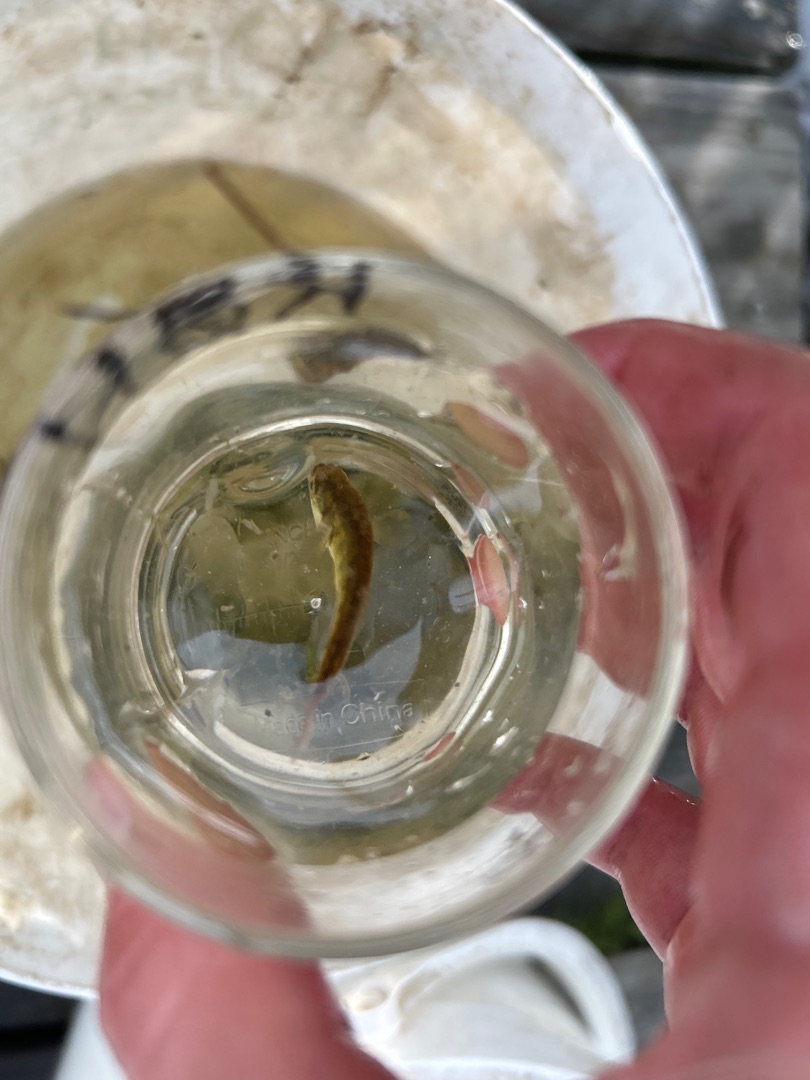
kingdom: Animalia
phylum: Chordata
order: Gasterosteiformes
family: Gasterosteidae
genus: Pungitius
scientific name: Pungitius pungitius
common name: Nipigget hundestejle
